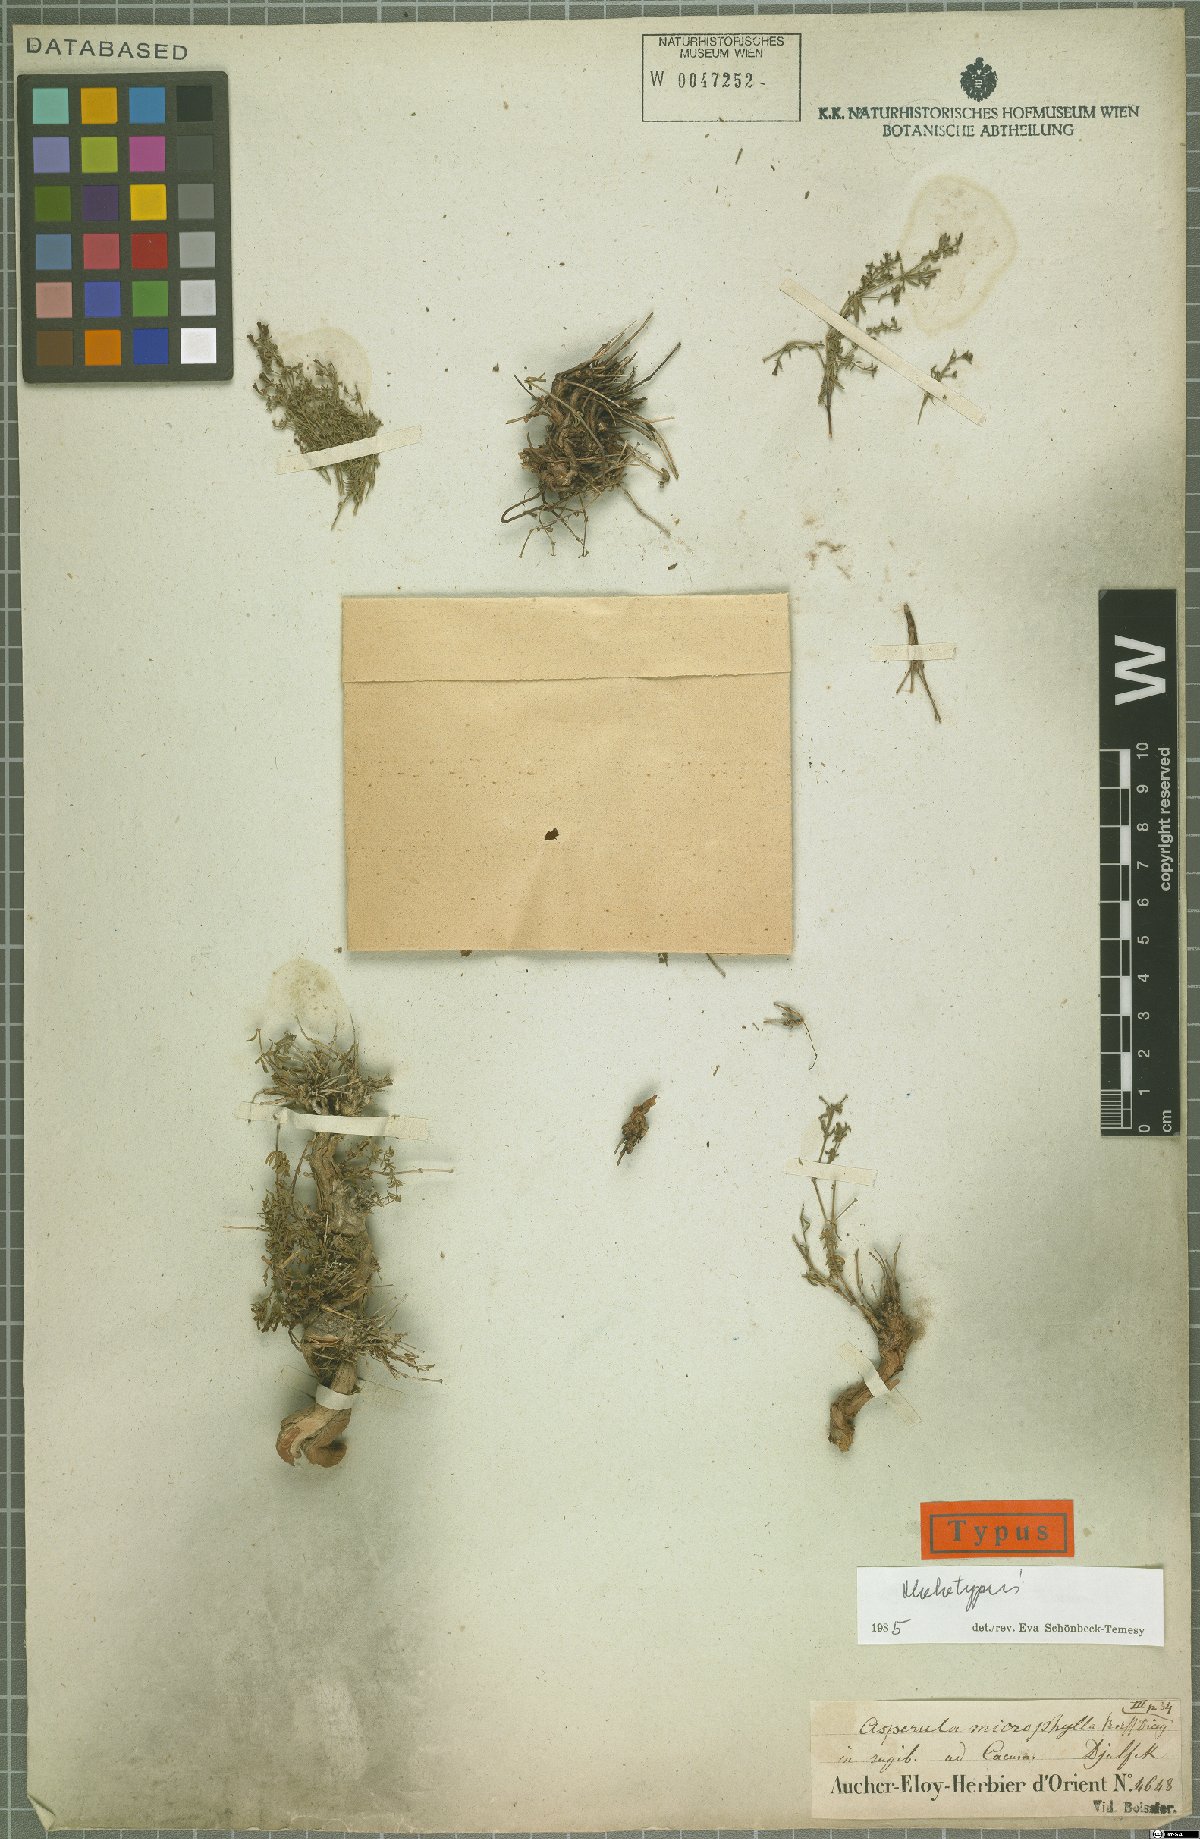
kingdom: Plantae
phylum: Tracheophyta
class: Magnoliopsida
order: Gentianales
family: Rubiaceae
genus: Thliphthisa
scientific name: Thliphthisa microphylla
